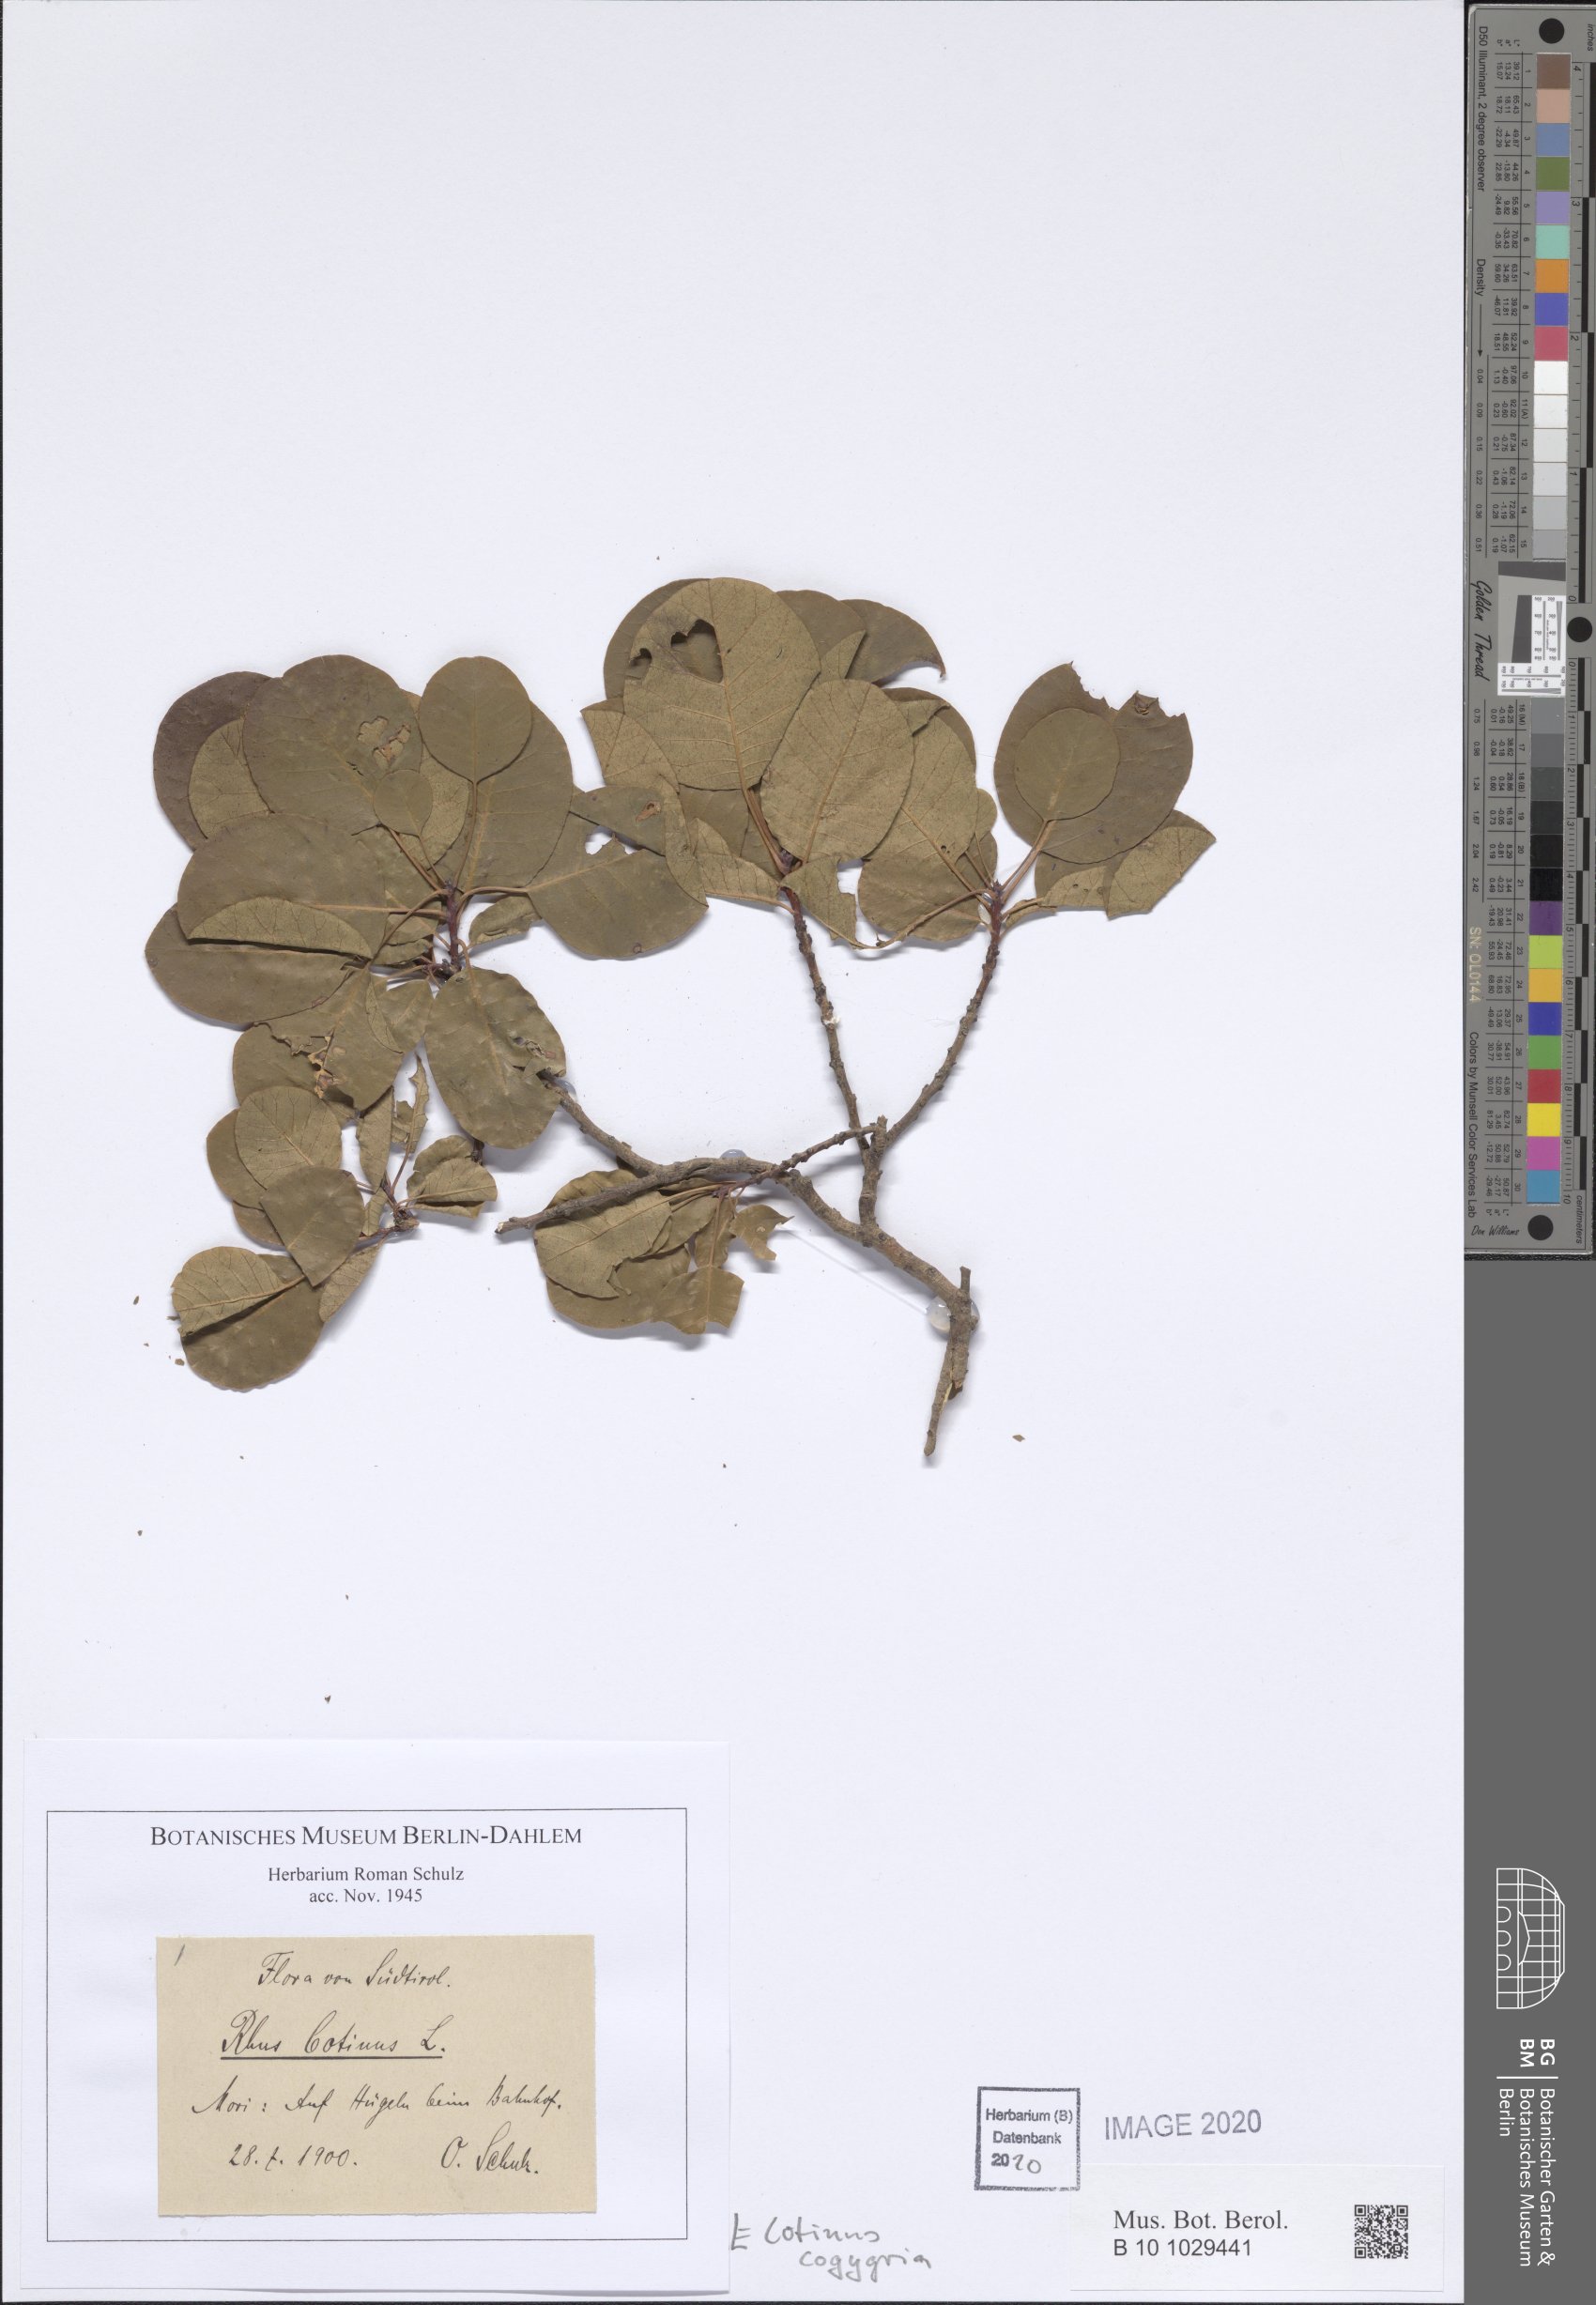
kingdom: Plantae
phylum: Tracheophyta
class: Magnoliopsida
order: Sapindales
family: Anacardiaceae
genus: Cotinus
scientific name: Cotinus coggygria
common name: Smoke-tree
